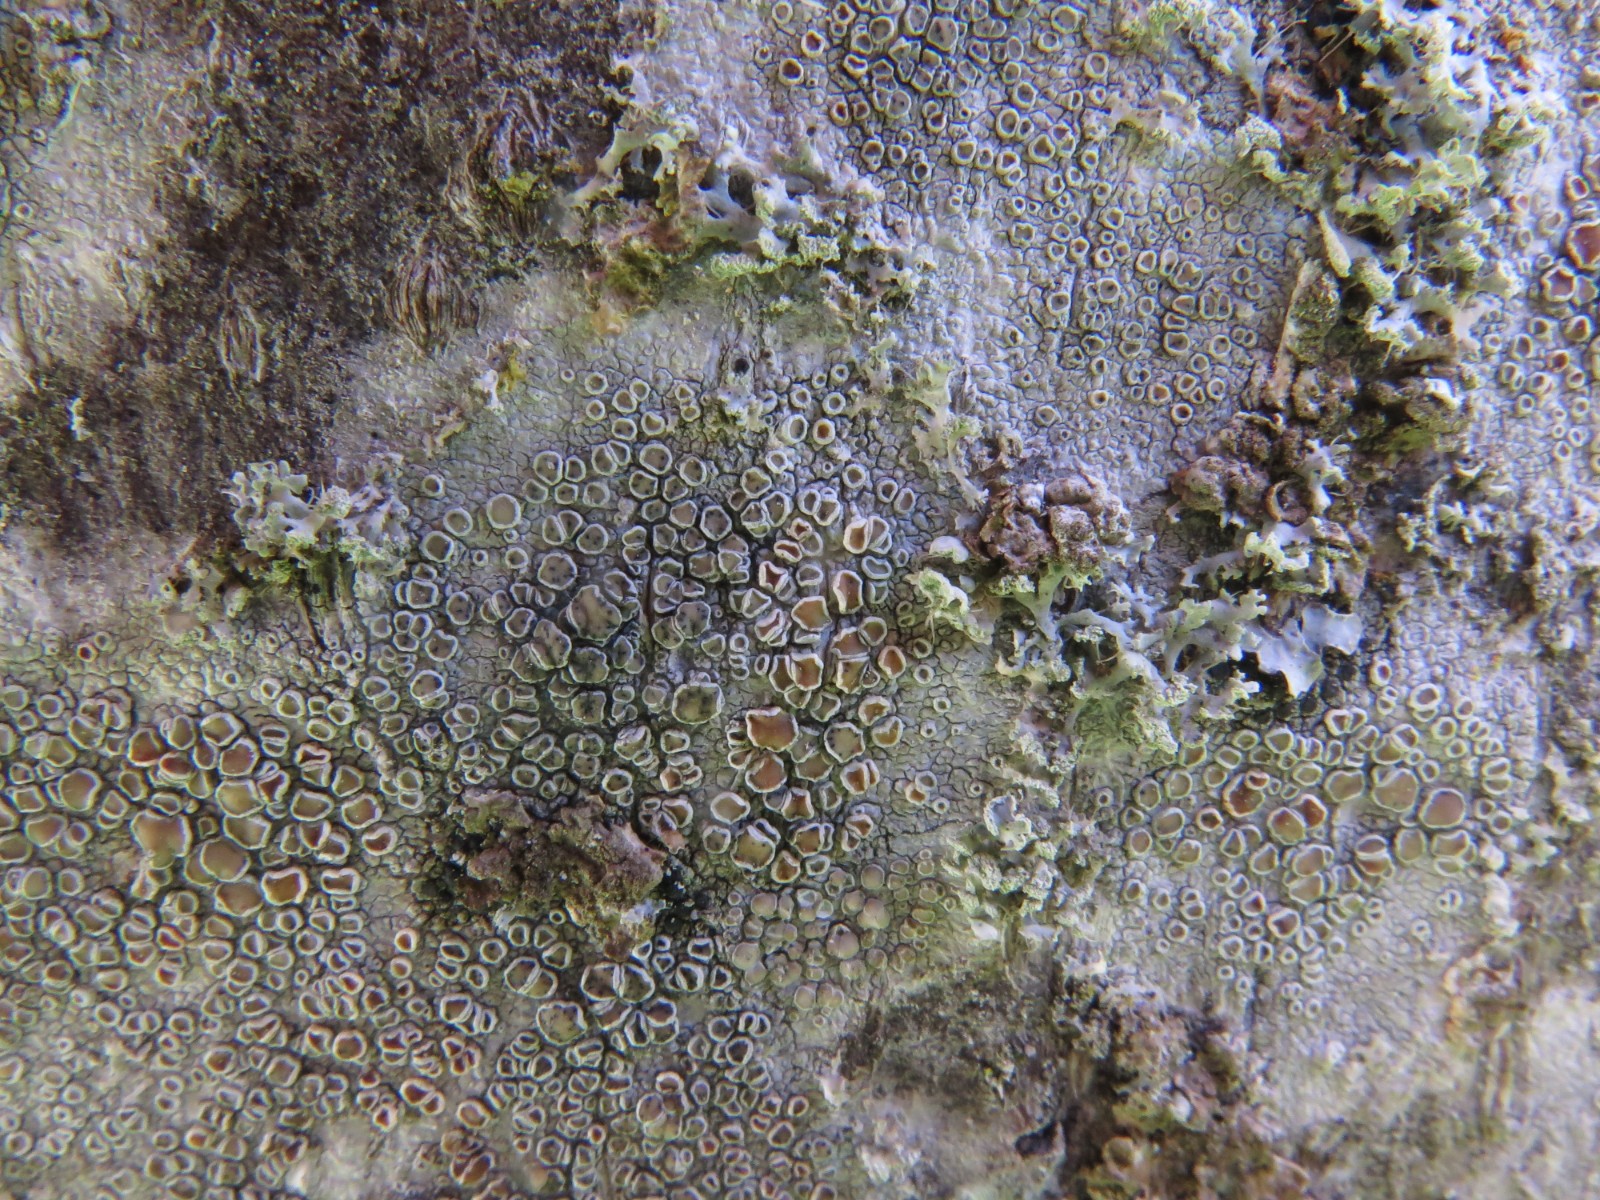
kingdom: Fungi
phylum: Ascomycota
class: Dothideomycetes
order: Pleosporales
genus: Vouauxiella
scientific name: Vouauxiella lichenicola
